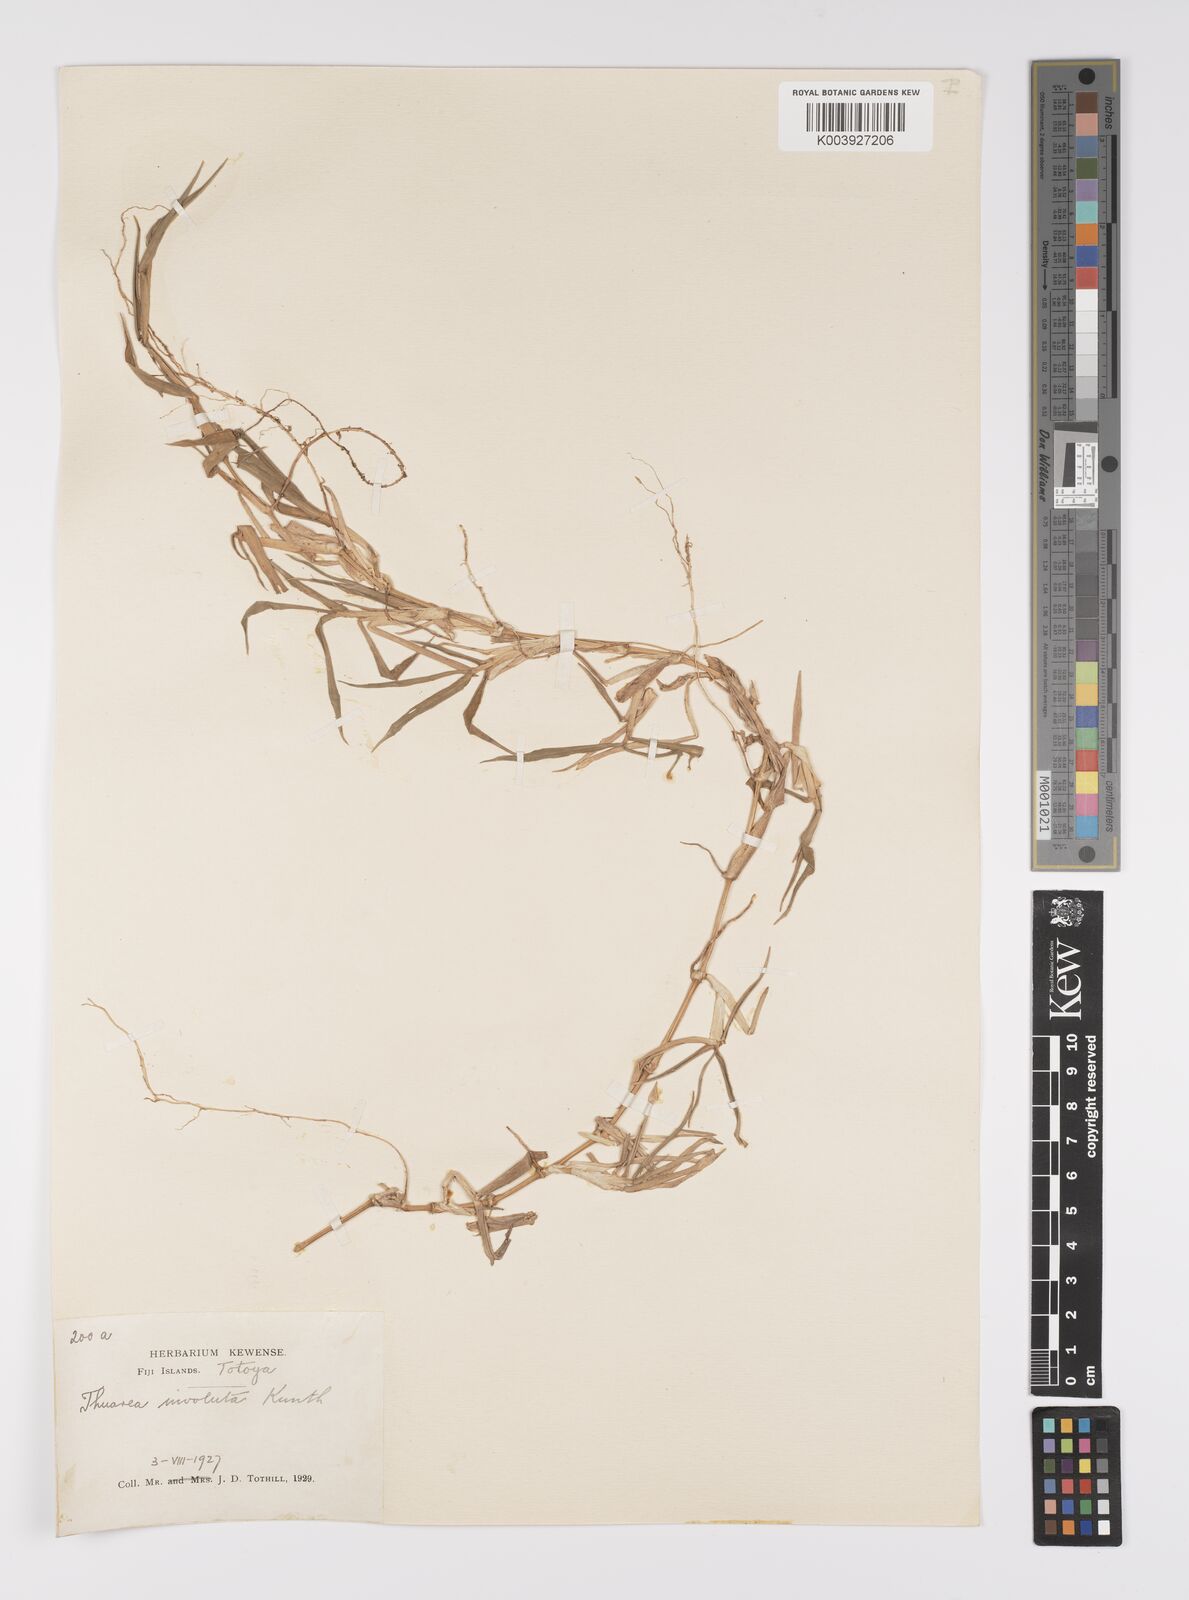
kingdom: Plantae
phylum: Tracheophyta
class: Liliopsida
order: Poales
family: Poaceae
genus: Thuarea
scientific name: Thuarea involuta
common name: Tropical beach grass
